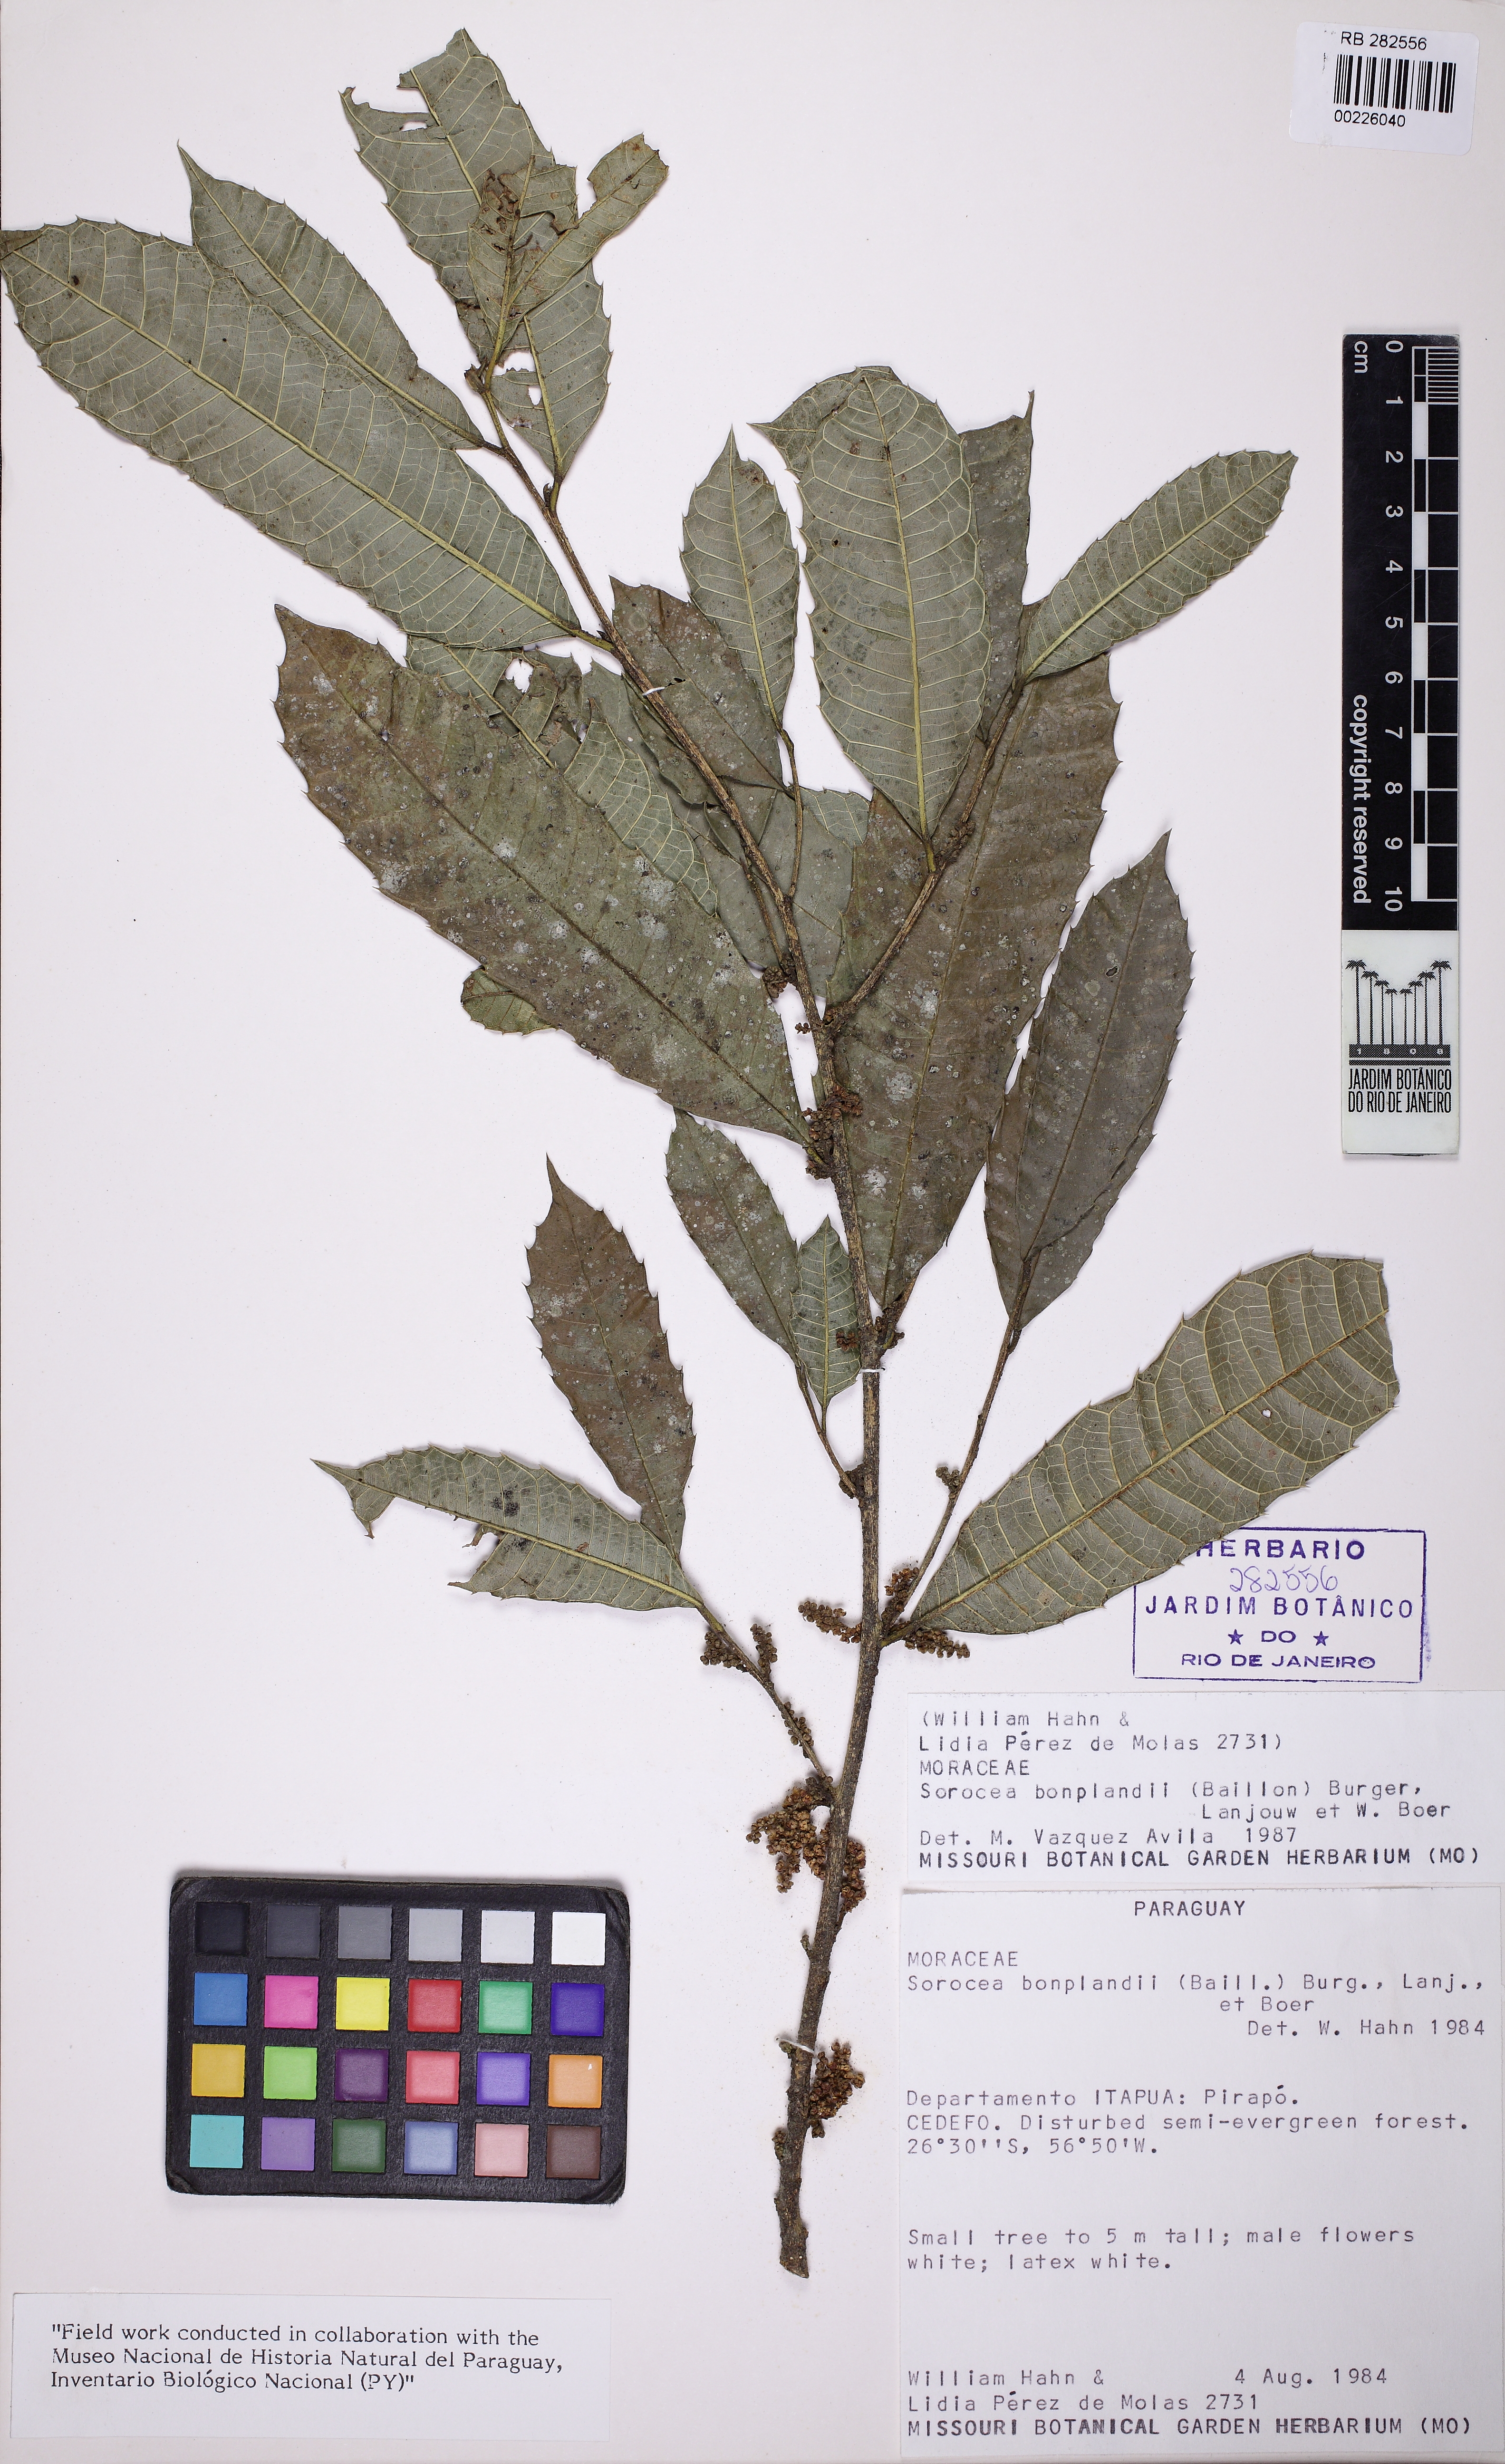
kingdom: Plantae
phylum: Tracheophyta
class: Magnoliopsida
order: Rosales
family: Moraceae
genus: Sorocea
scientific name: Sorocea bonplandii
